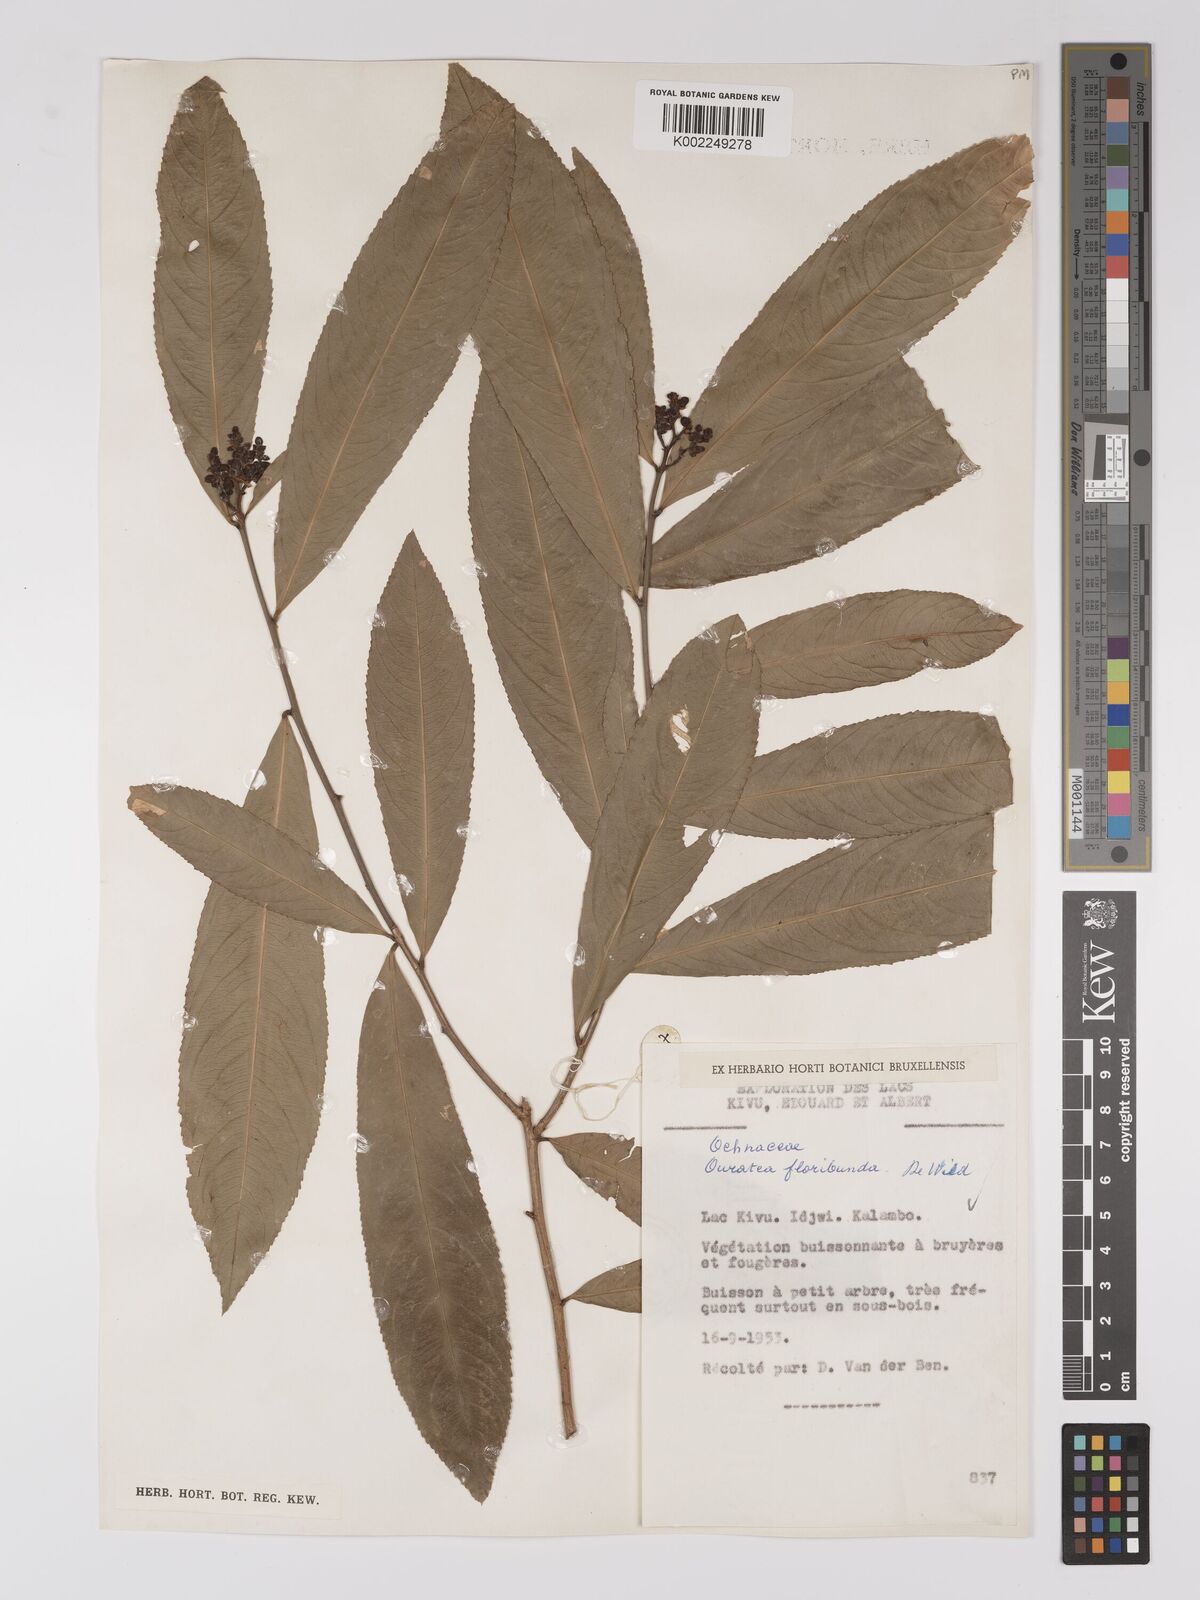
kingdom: Plantae
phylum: Tracheophyta
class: Magnoliopsida
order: Malpighiales
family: Ochnaceae
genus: Campylospermum
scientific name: Campylospermum likimiense
